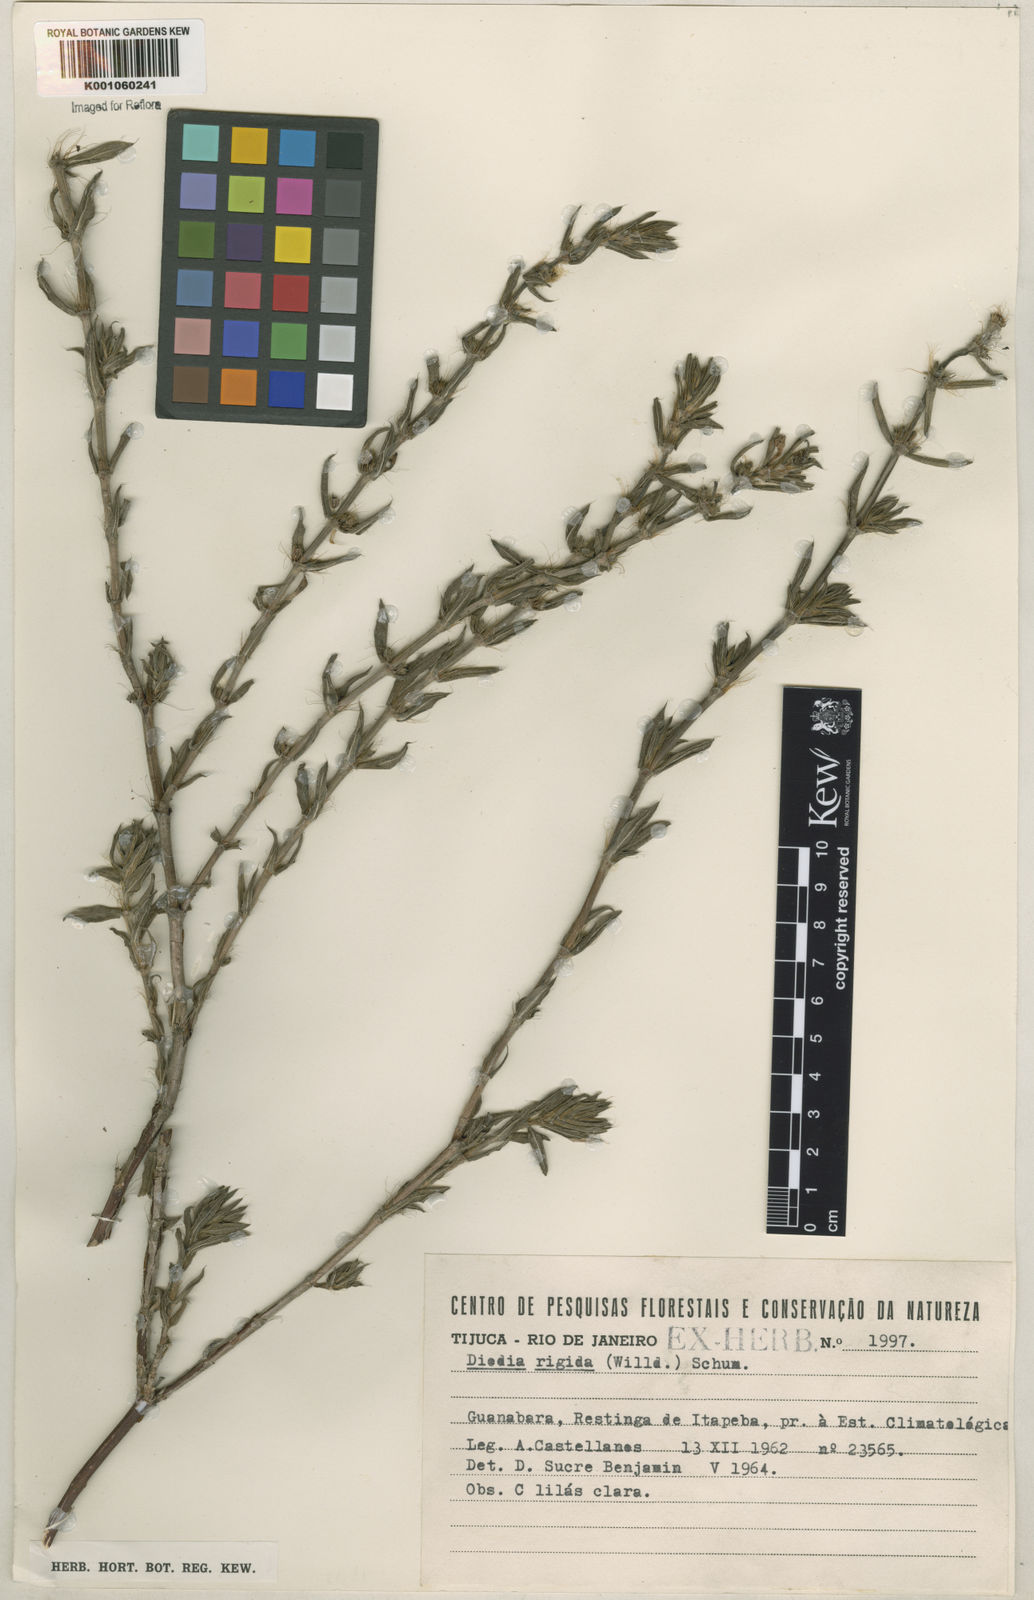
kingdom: Plantae
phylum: Tracheophyta
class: Magnoliopsida
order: Gentianales
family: Rubiaceae
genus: Hexasepalum
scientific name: Hexasepalum apiculatum
